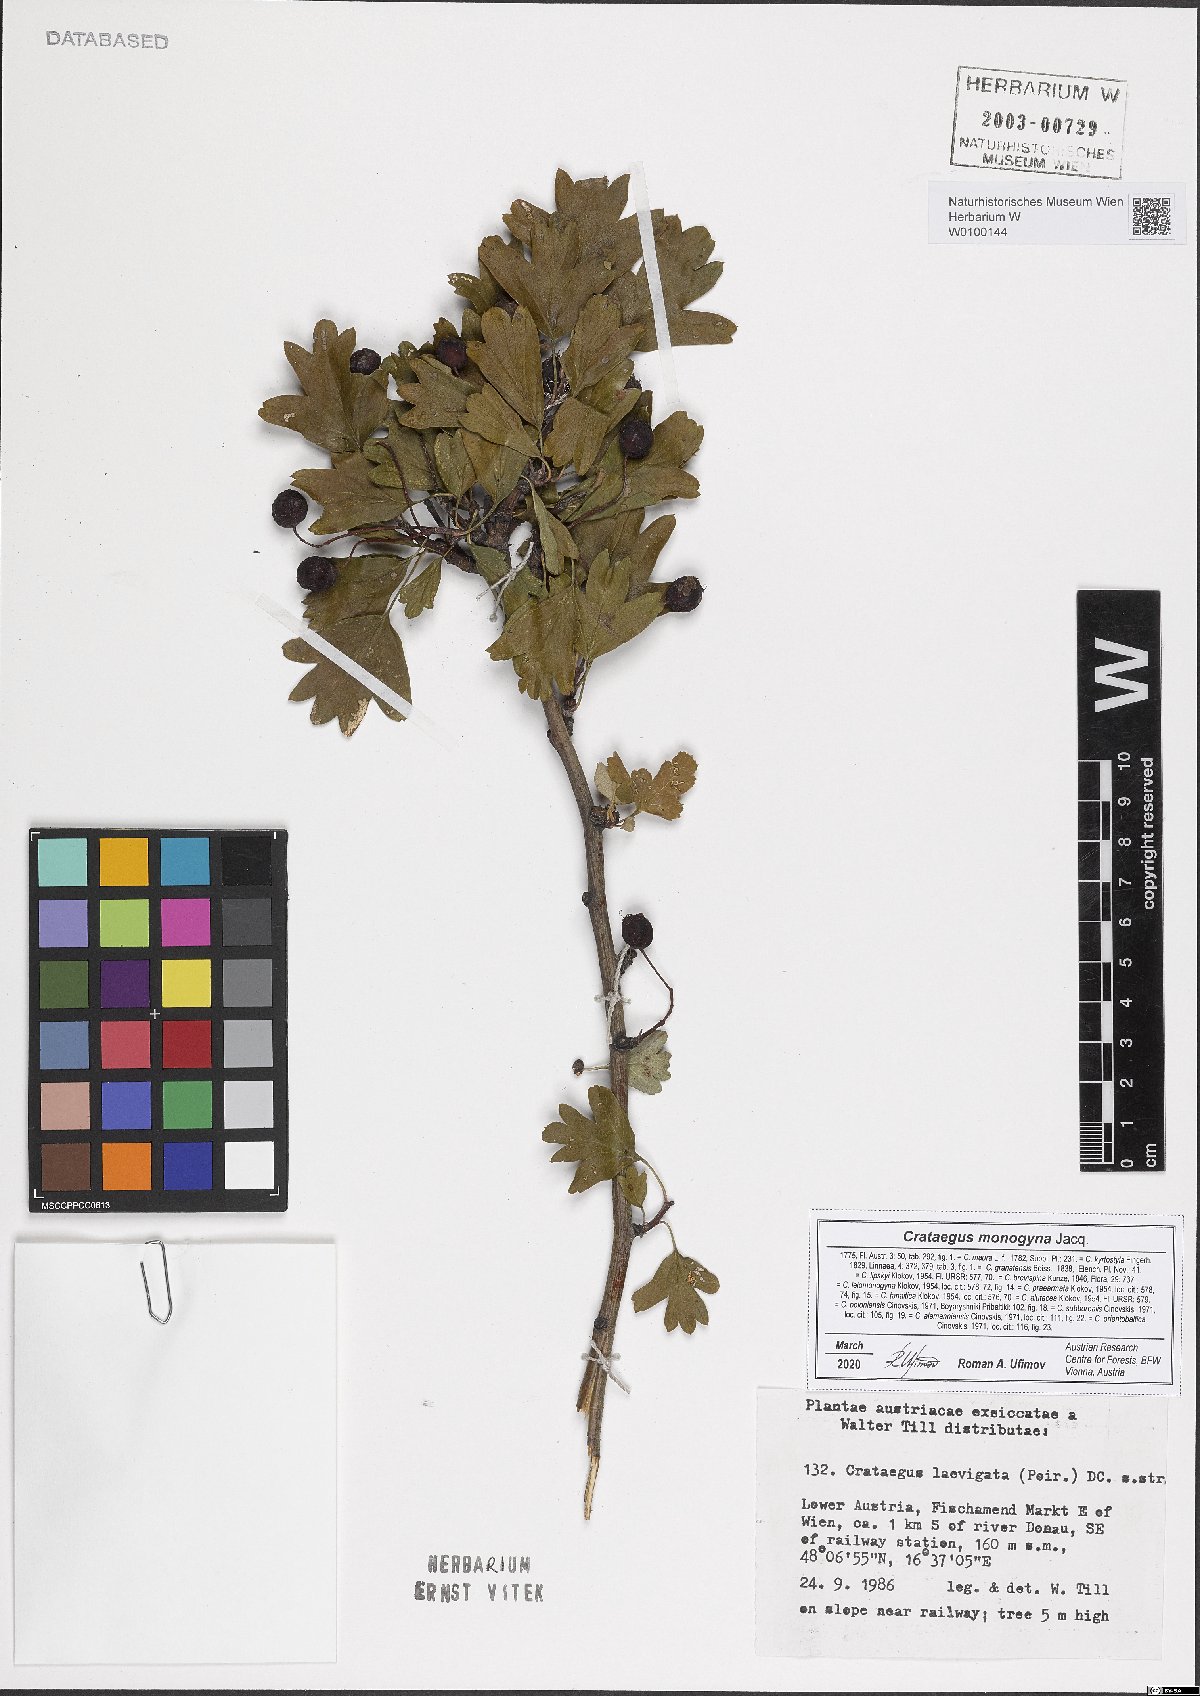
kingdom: Plantae
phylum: Tracheophyta
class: Magnoliopsida
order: Rosales
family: Rosaceae
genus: Crataegus
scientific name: Crataegus monogyna
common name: Hawthorn
